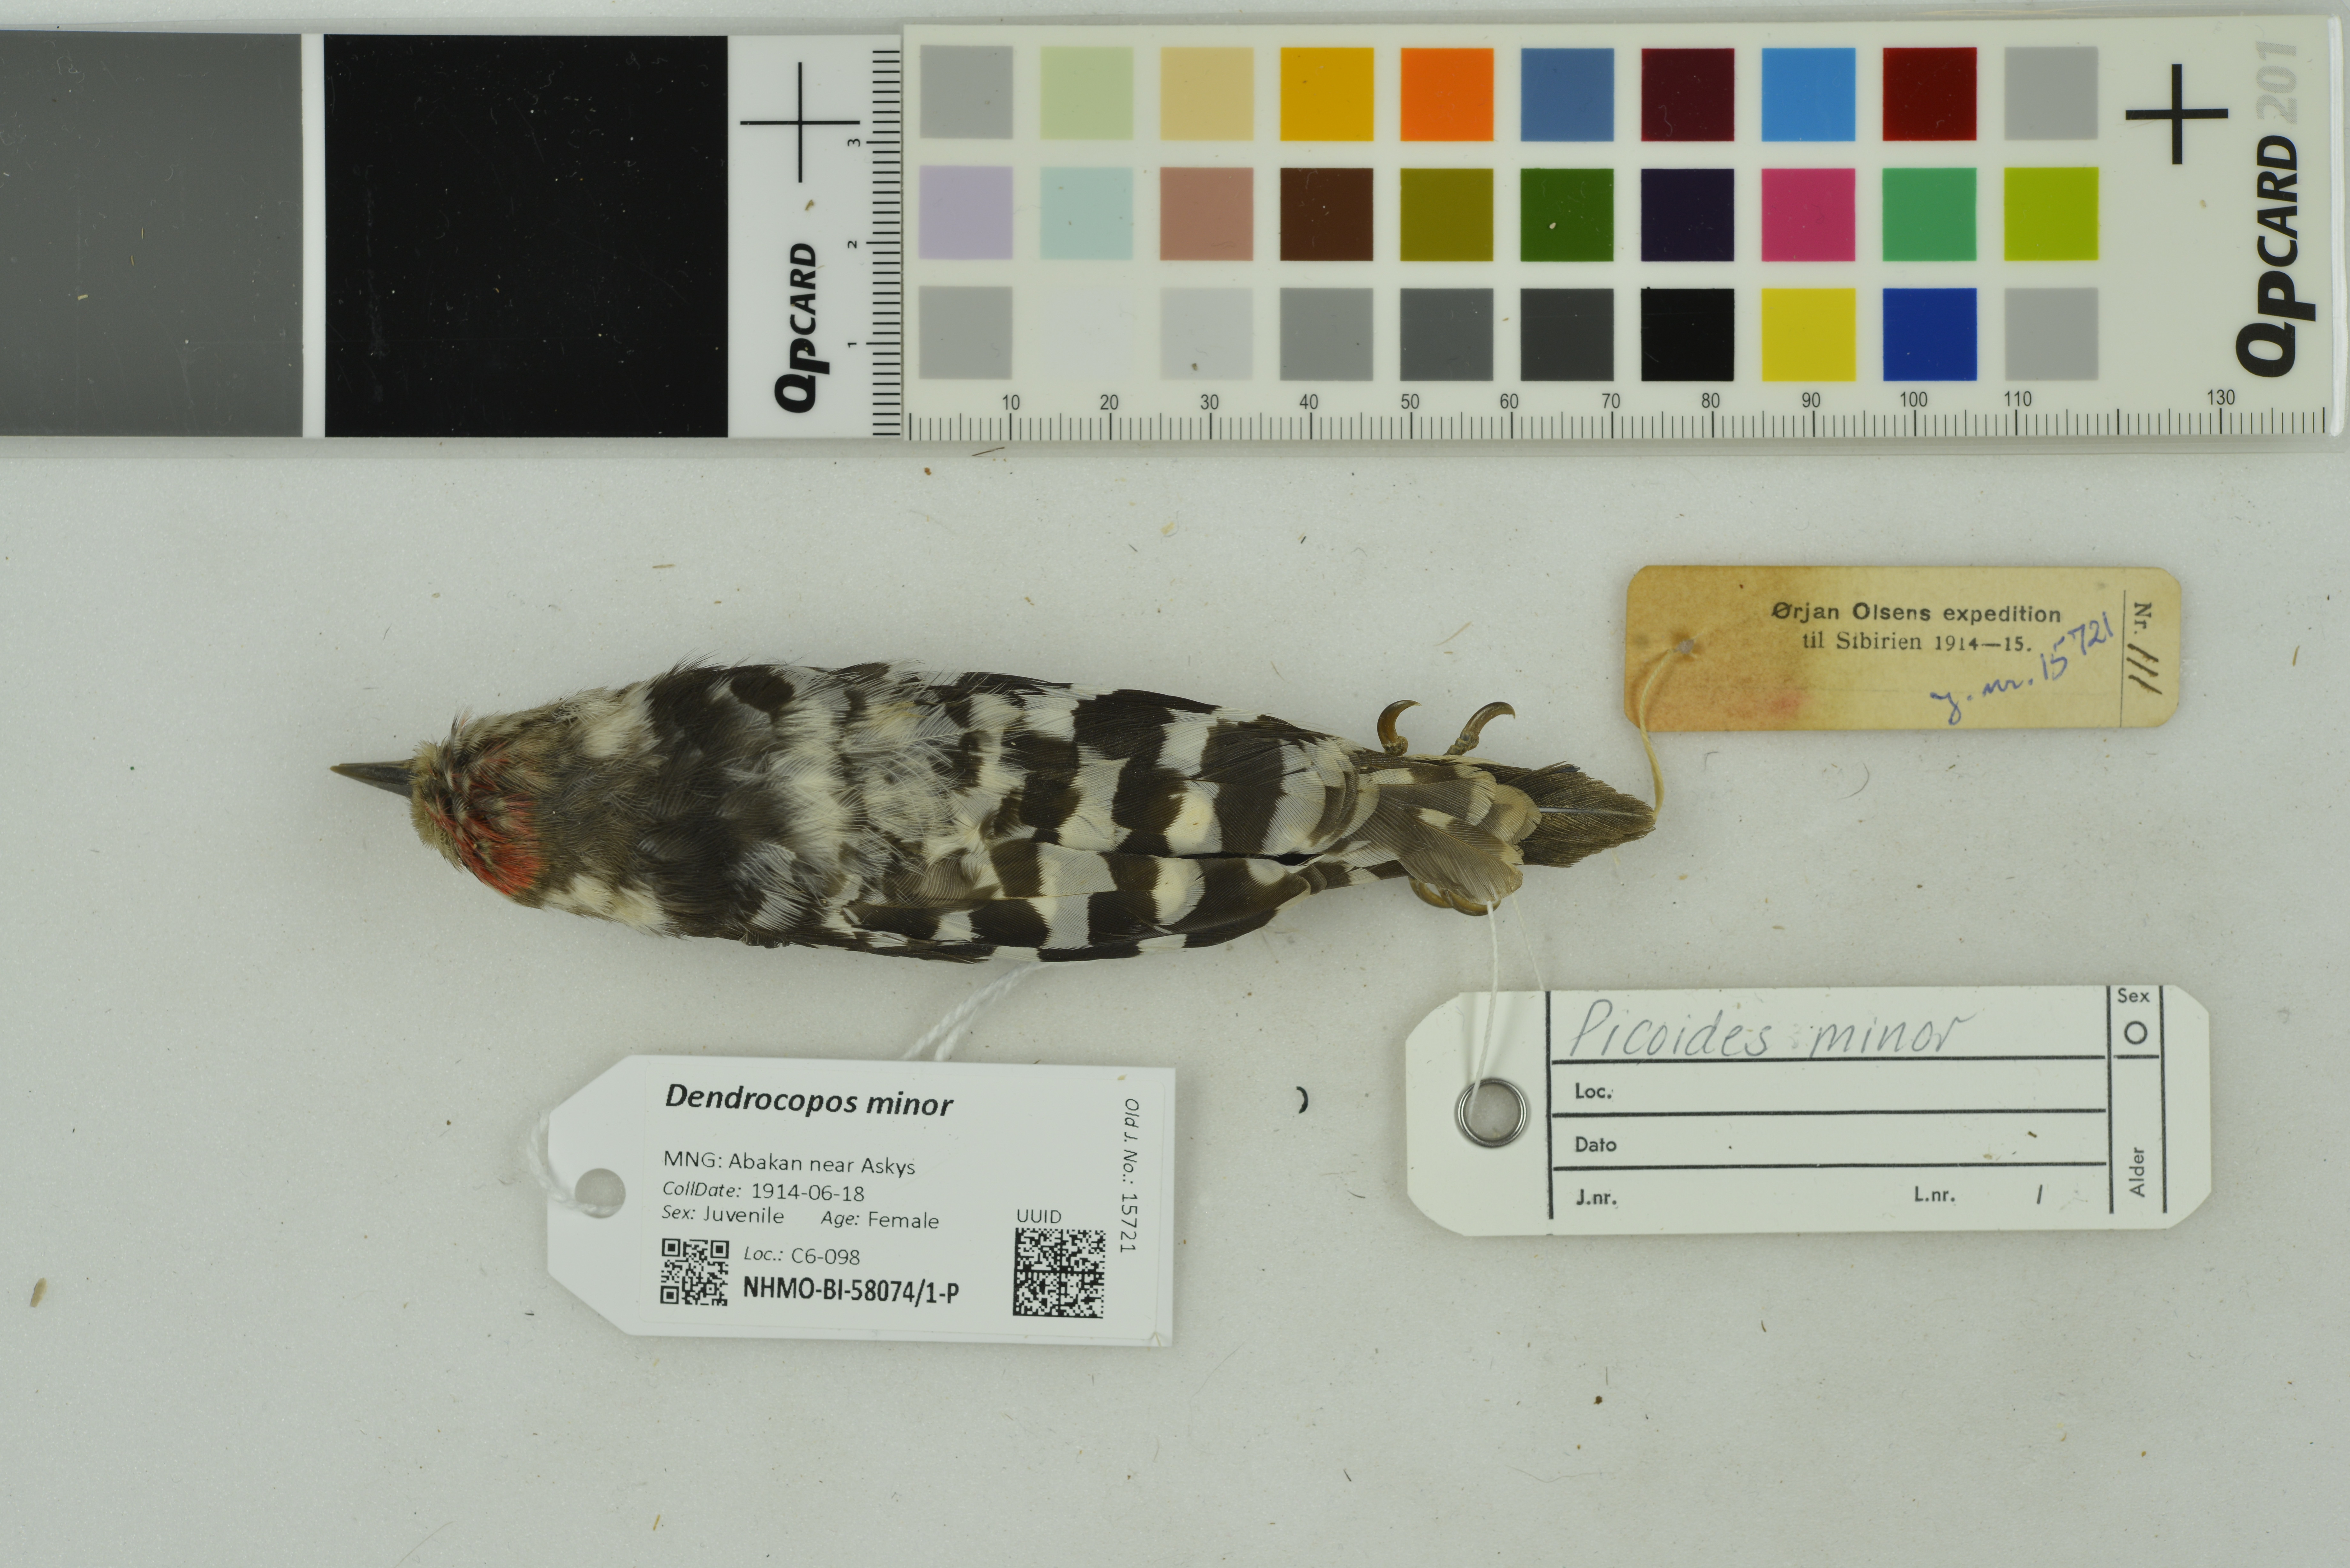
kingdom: Animalia
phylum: Chordata
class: Aves
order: Piciformes
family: Picidae
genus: Dryobates
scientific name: Dryobates minor
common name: Lesser spotted woodpecker
